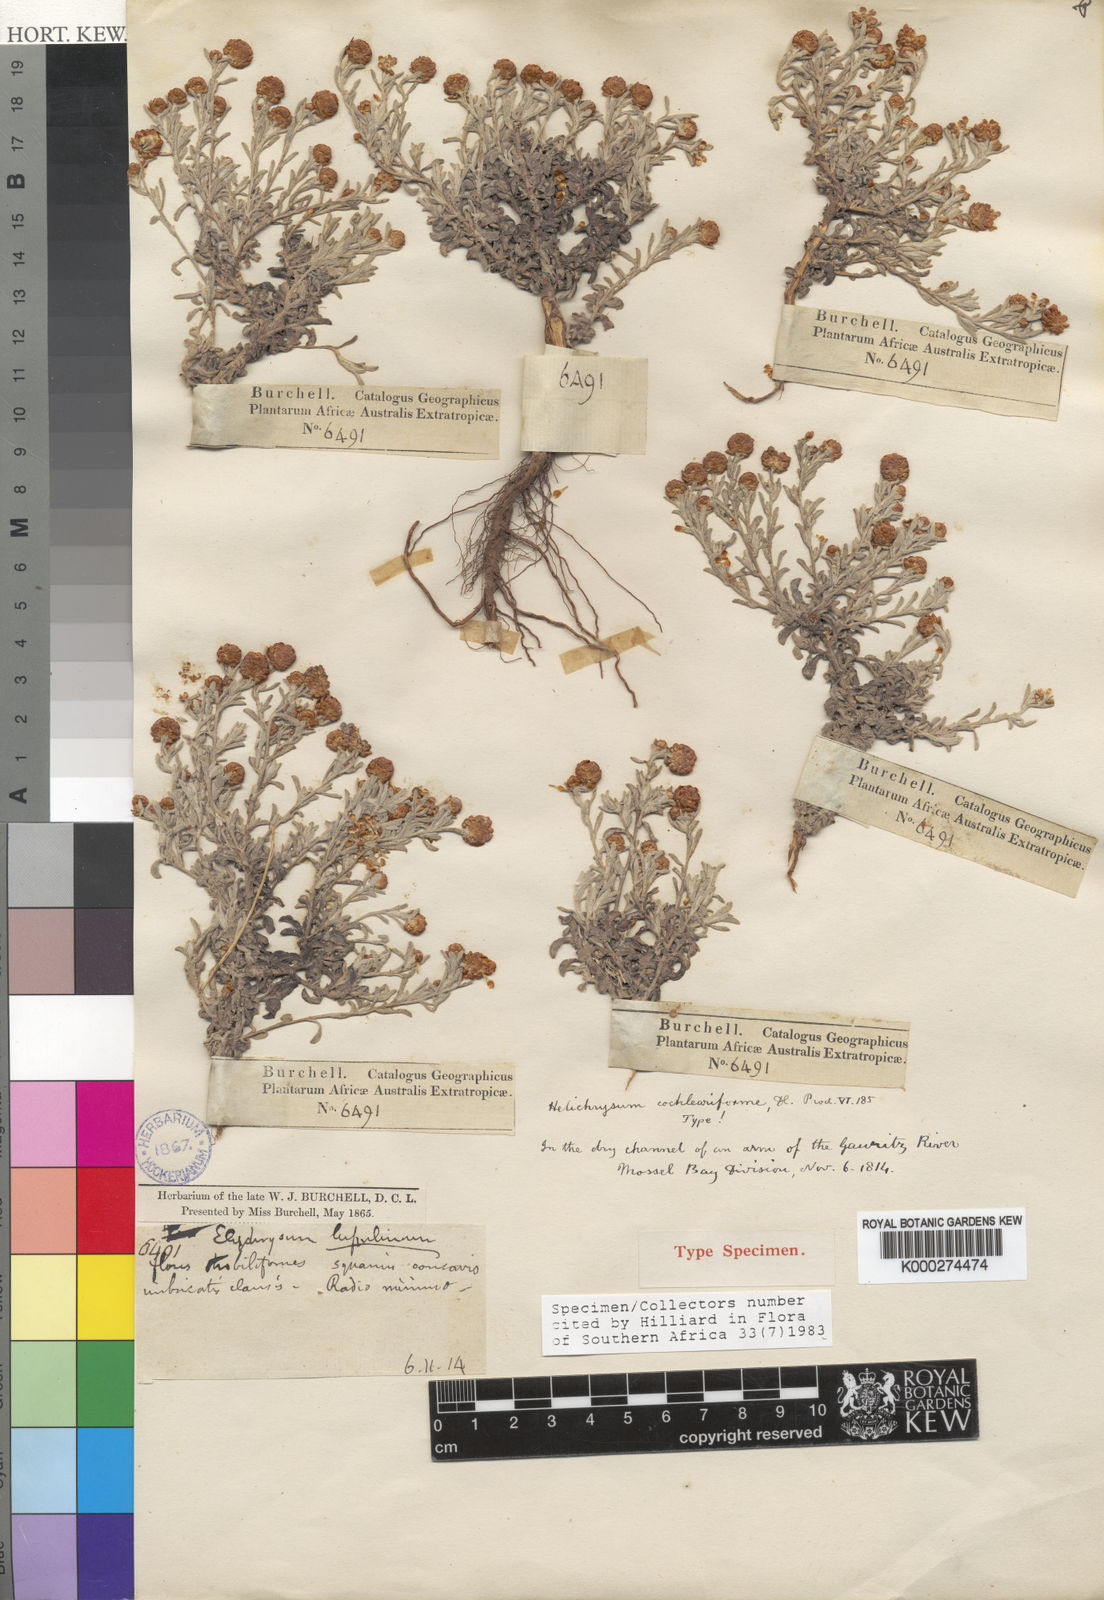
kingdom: Plantae
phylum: Tracheophyta
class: Magnoliopsida
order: Asterales
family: Asteraceae
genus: Helichrysum
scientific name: Helichrysum cochleariforme
